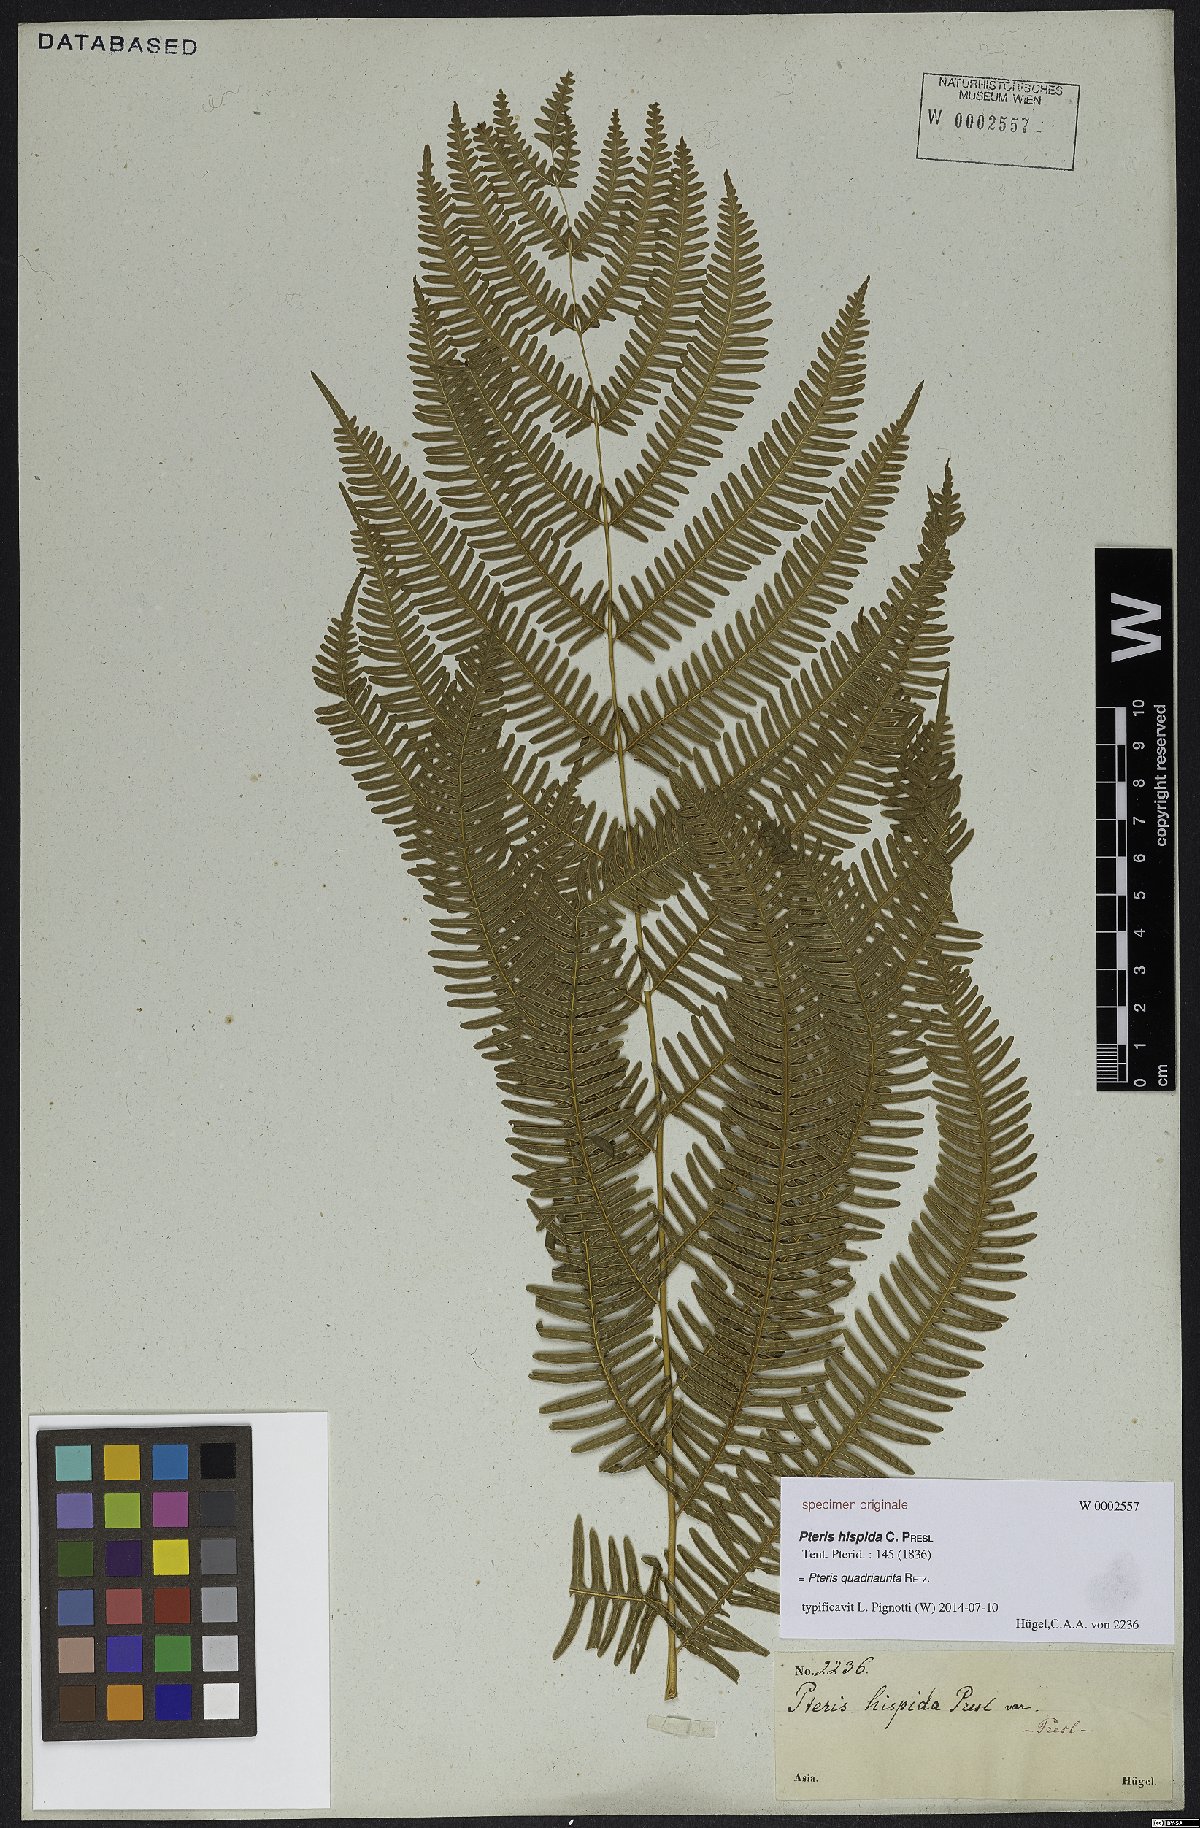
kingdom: Plantae
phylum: Tracheophyta
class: Polypodiopsida
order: Polypodiales
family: Pteridaceae
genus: Pteris
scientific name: Pteris quadriaurita
